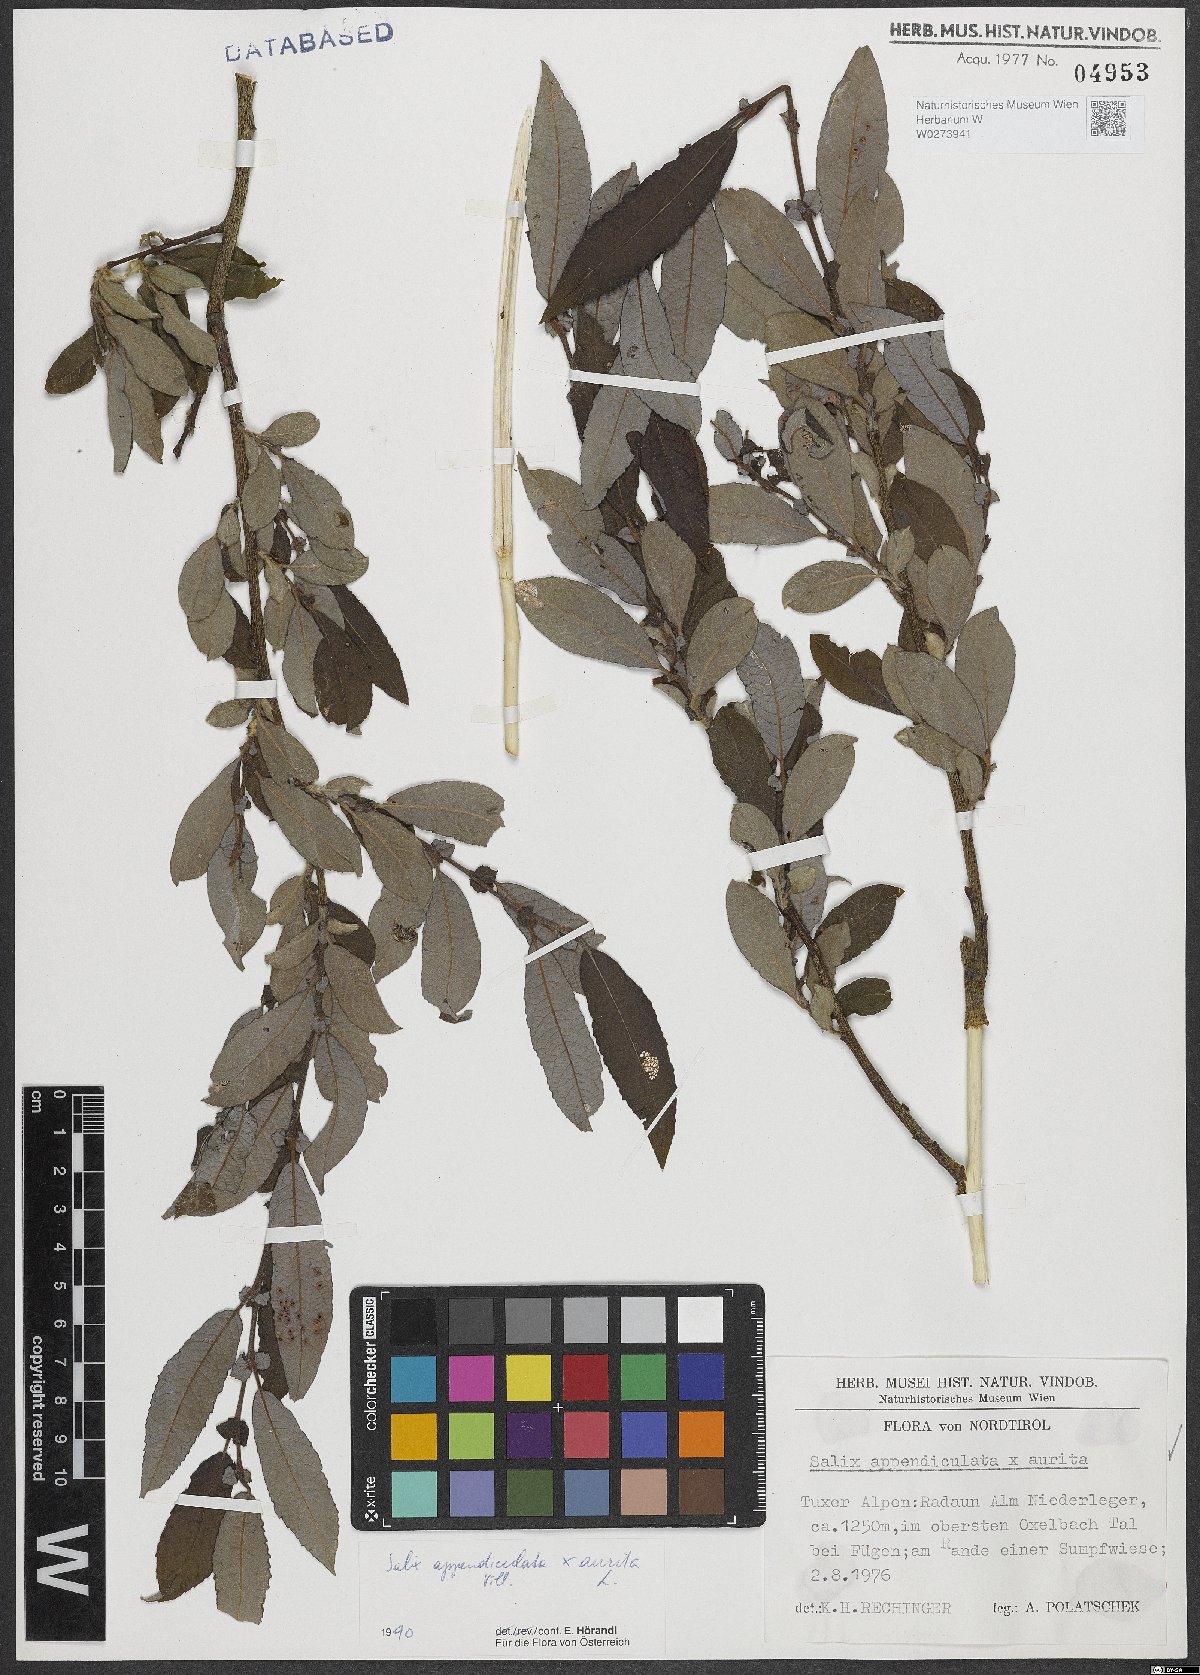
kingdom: Plantae
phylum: Tracheophyta
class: Magnoliopsida
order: Malpighiales
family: Salicaceae
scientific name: Salicaceae
